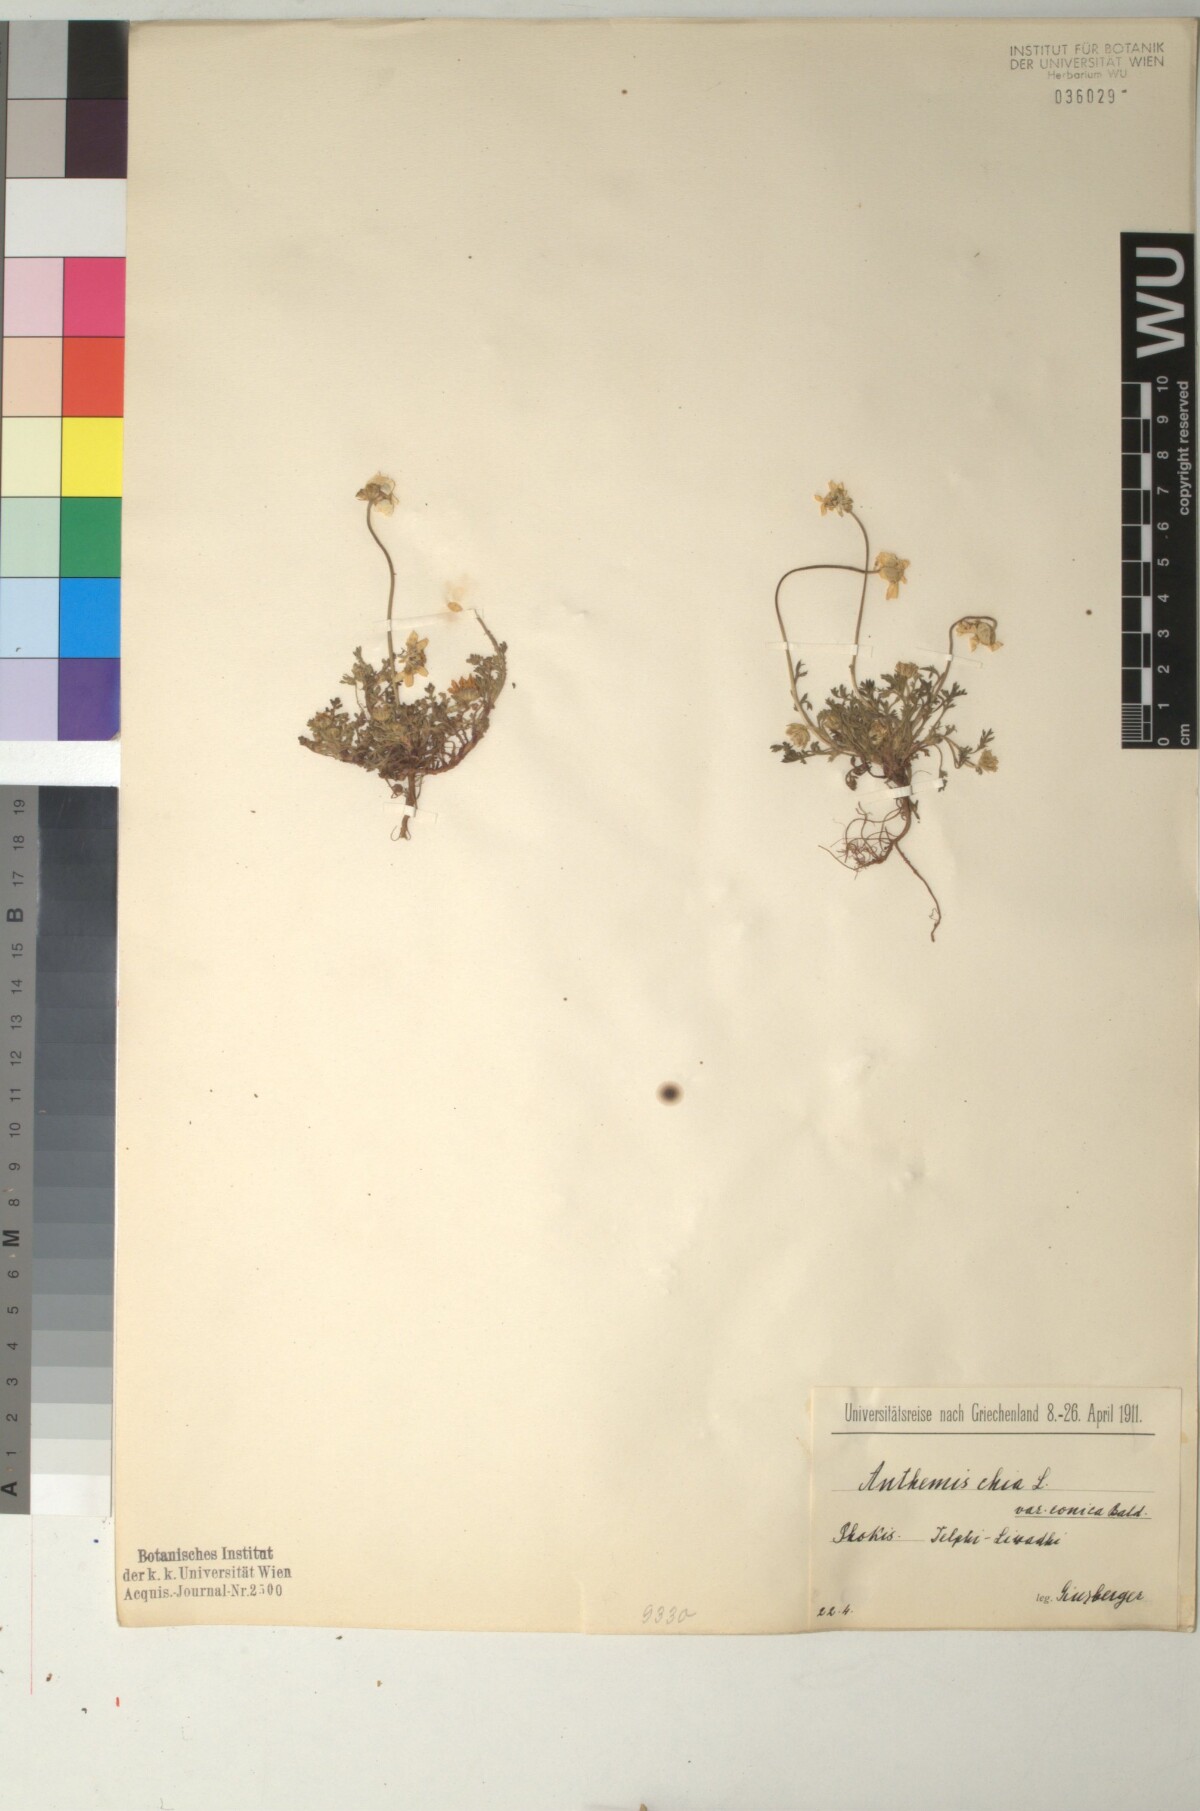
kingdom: Plantae
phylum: Tracheophyta
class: Magnoliopsida
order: Asterales
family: Asteraceae
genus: Anthemis
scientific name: Anthemis chia
